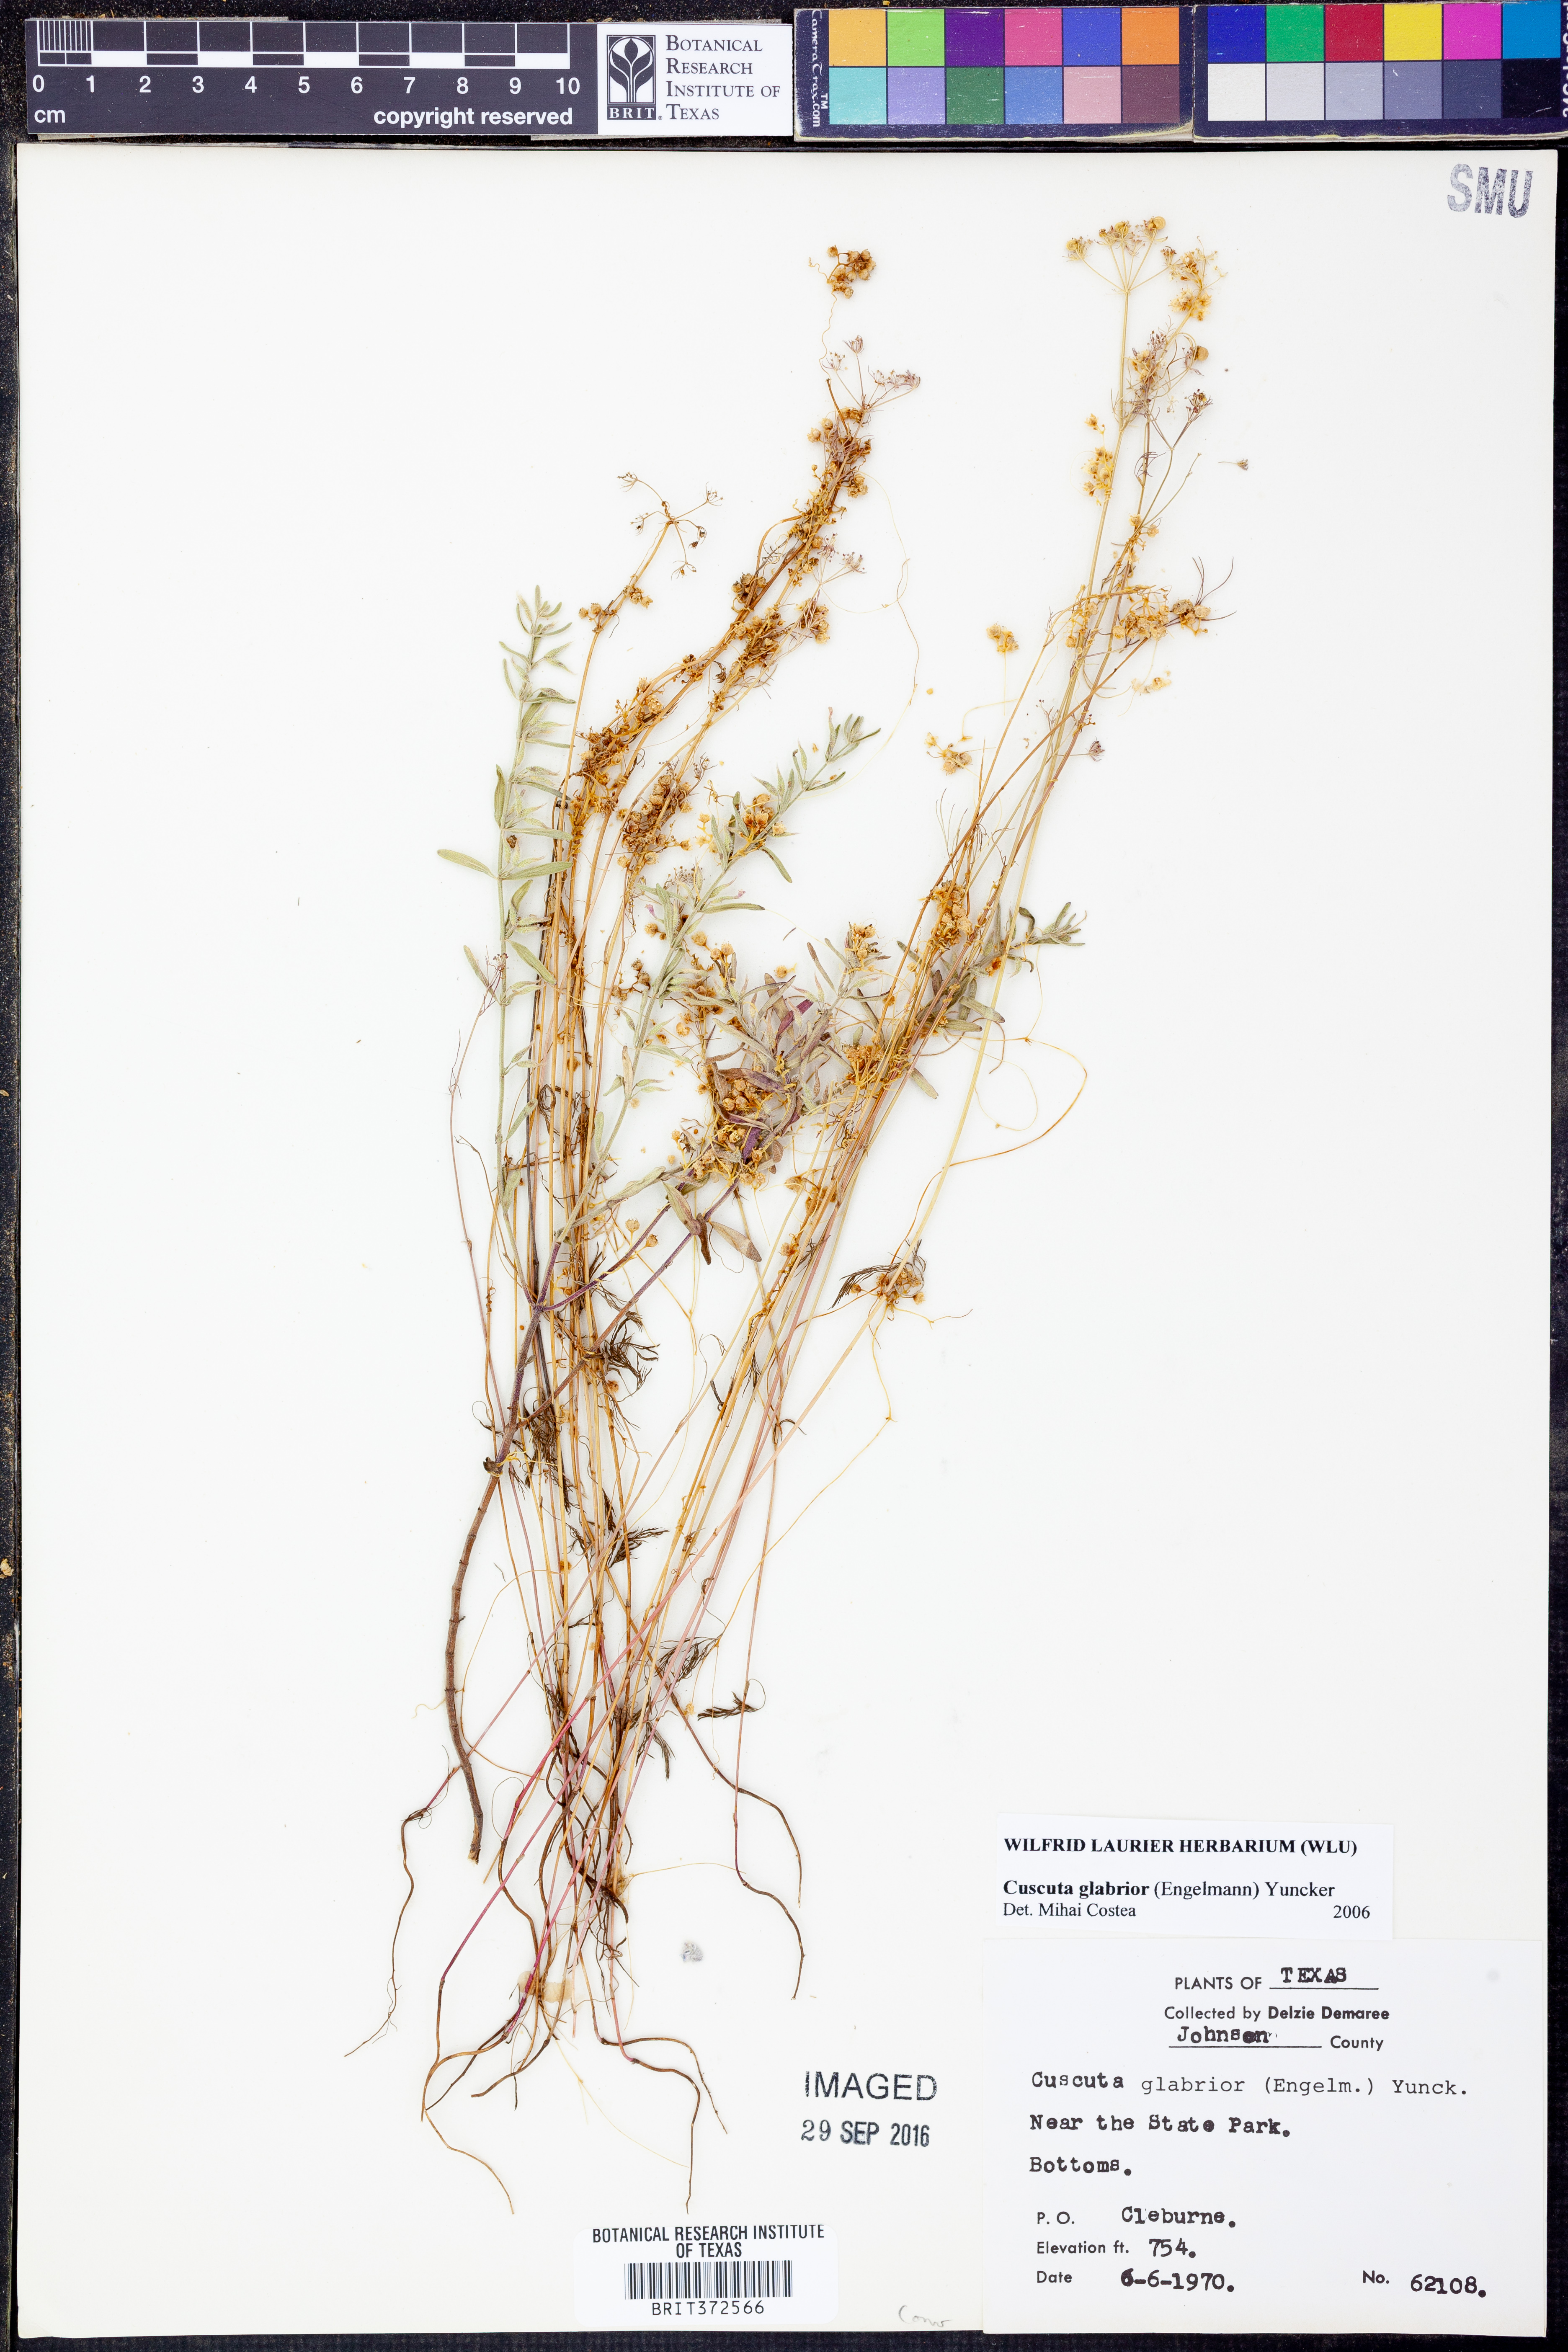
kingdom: Plantae
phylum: Tracheophyta
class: Magnoliopsida
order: Solanales
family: Convolvulaceae
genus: Cuscuta
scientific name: Cuscuta glabrior
